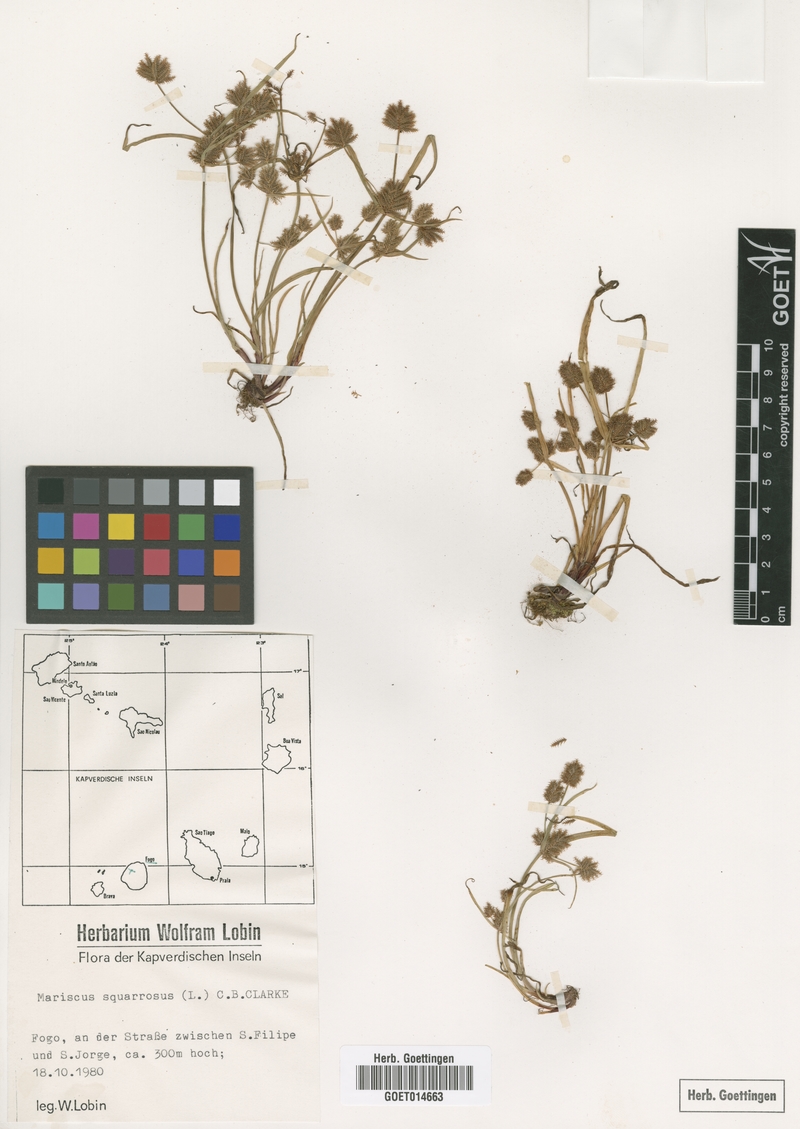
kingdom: Plantae
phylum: Tracheophyta
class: Liliopsida
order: Poales
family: Cyperaceae
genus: Cyperus
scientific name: Cyperus squarrosus
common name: Awned cyperus
